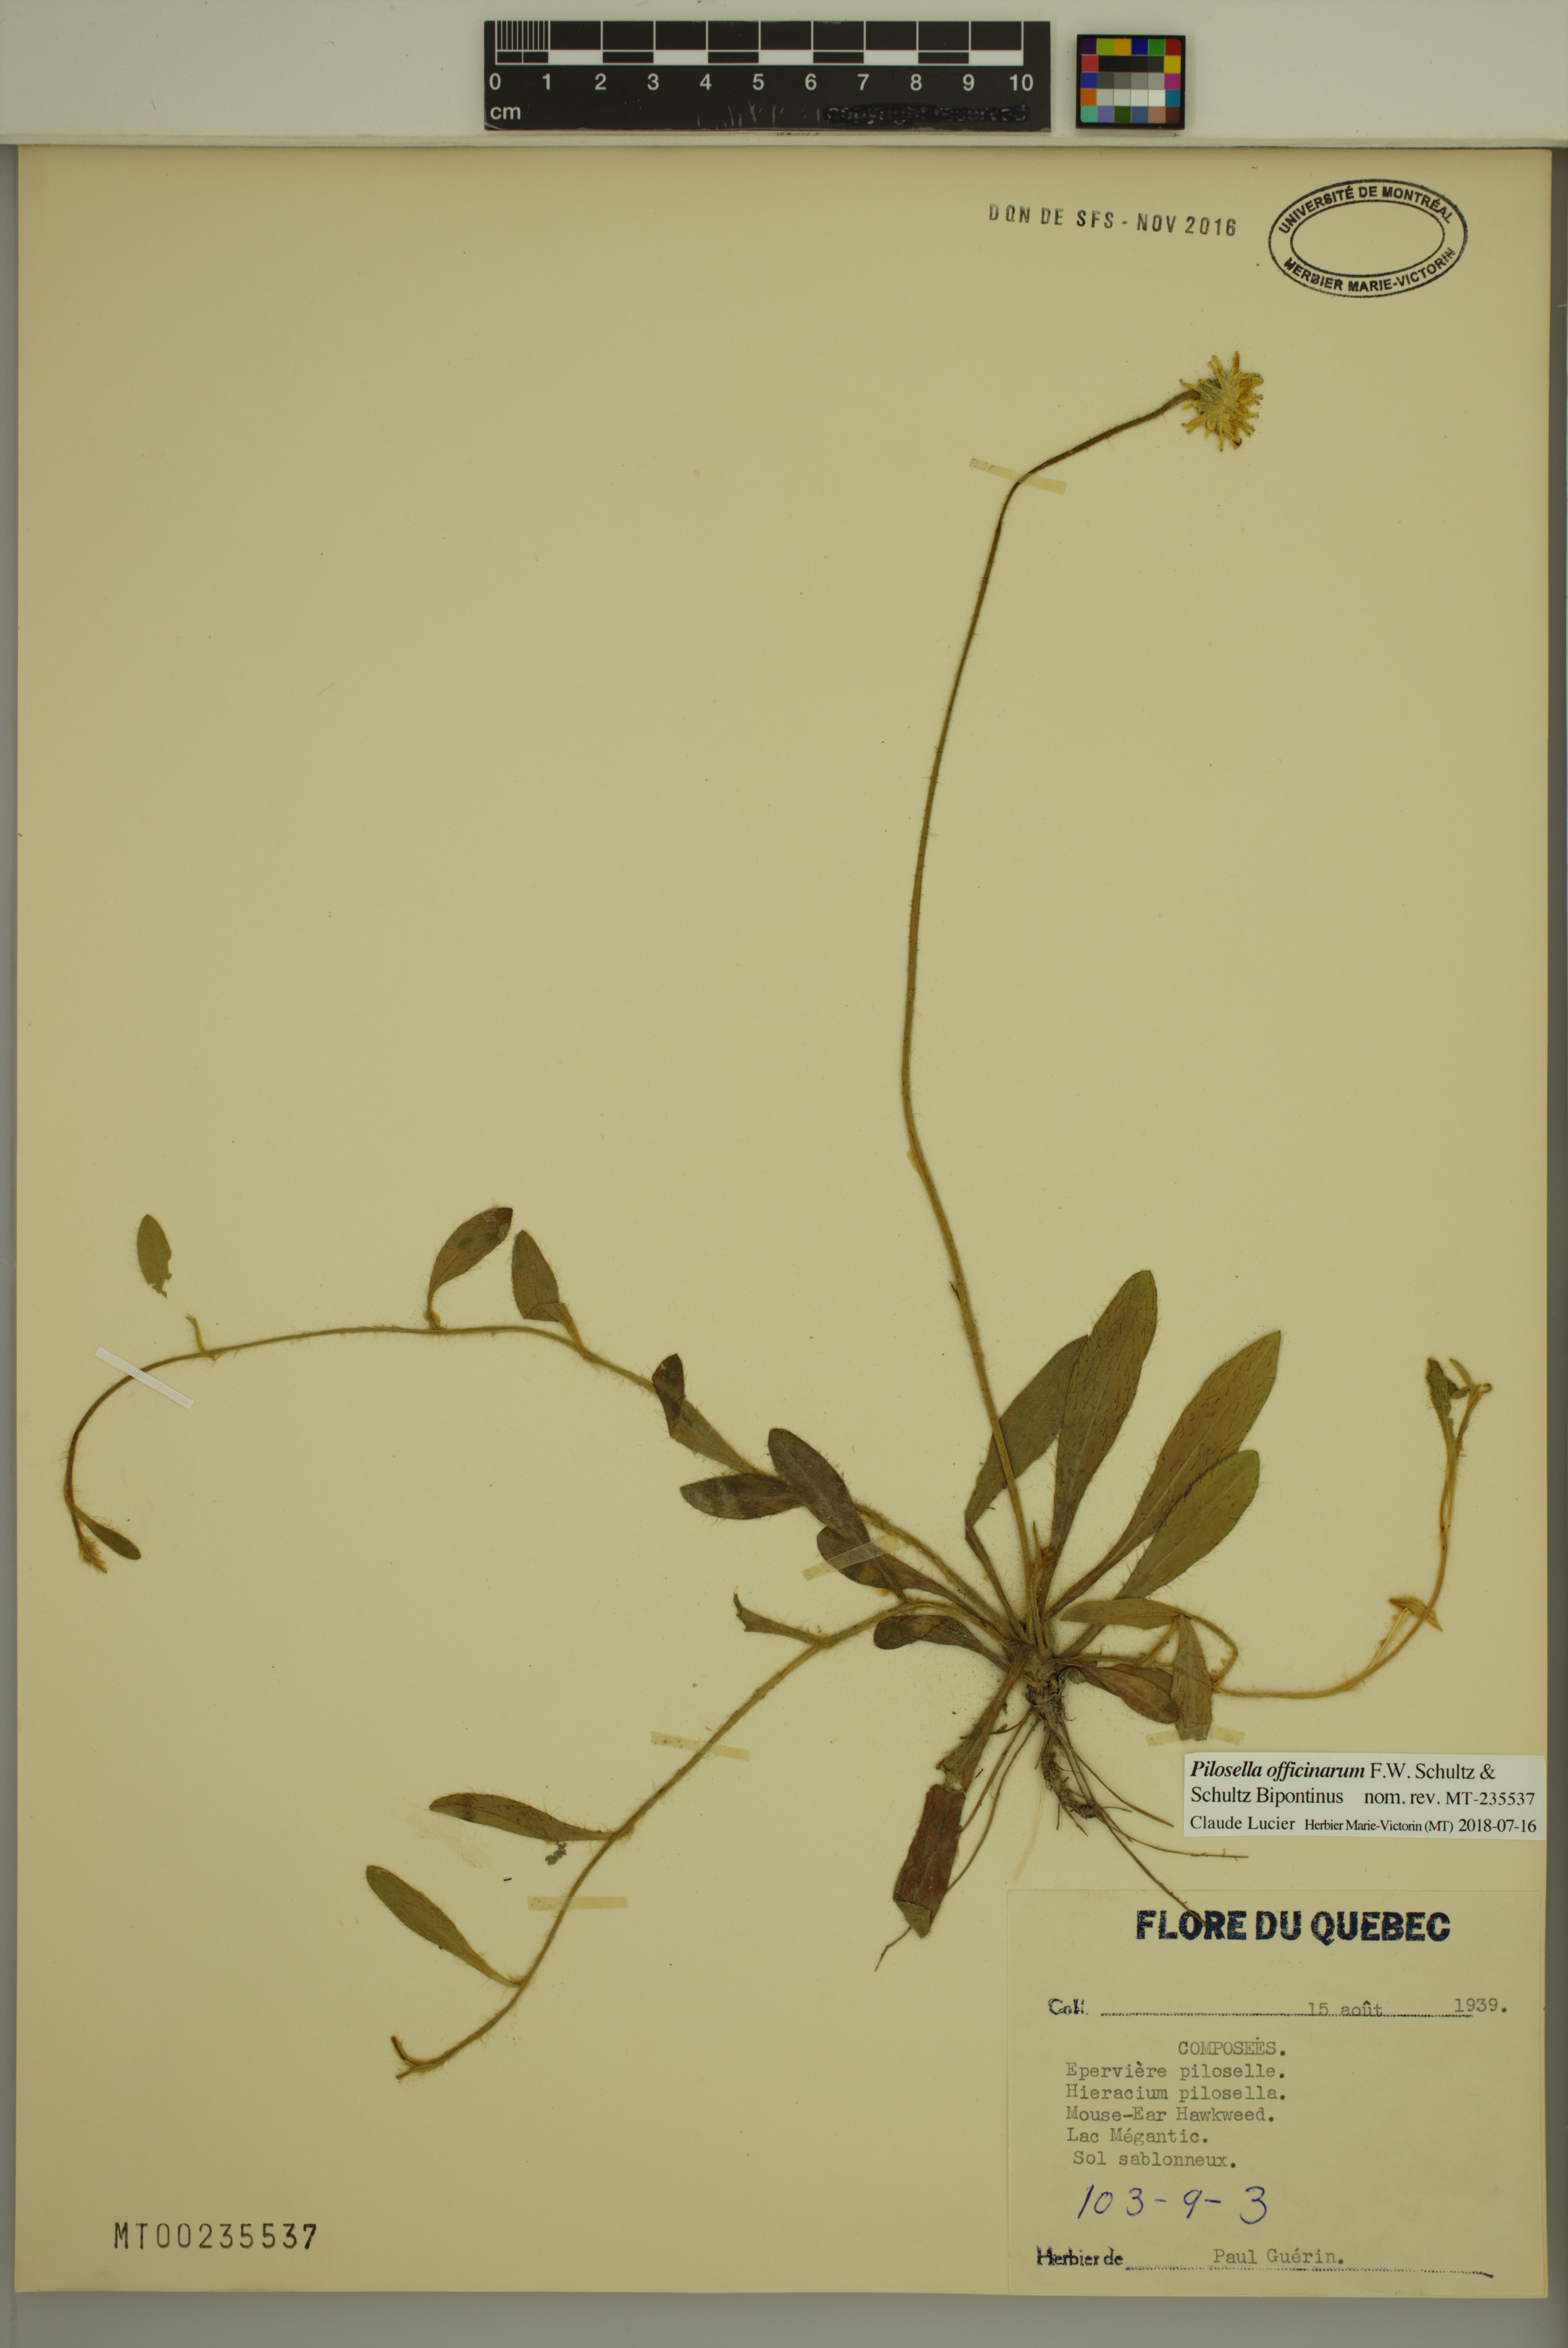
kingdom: Plantae
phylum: Tracheophyta
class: Magnoliopsida
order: Asterales
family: Asteraceae
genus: Pilosella
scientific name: Pilosella officinarum
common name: Mouse-ear hawkweed
